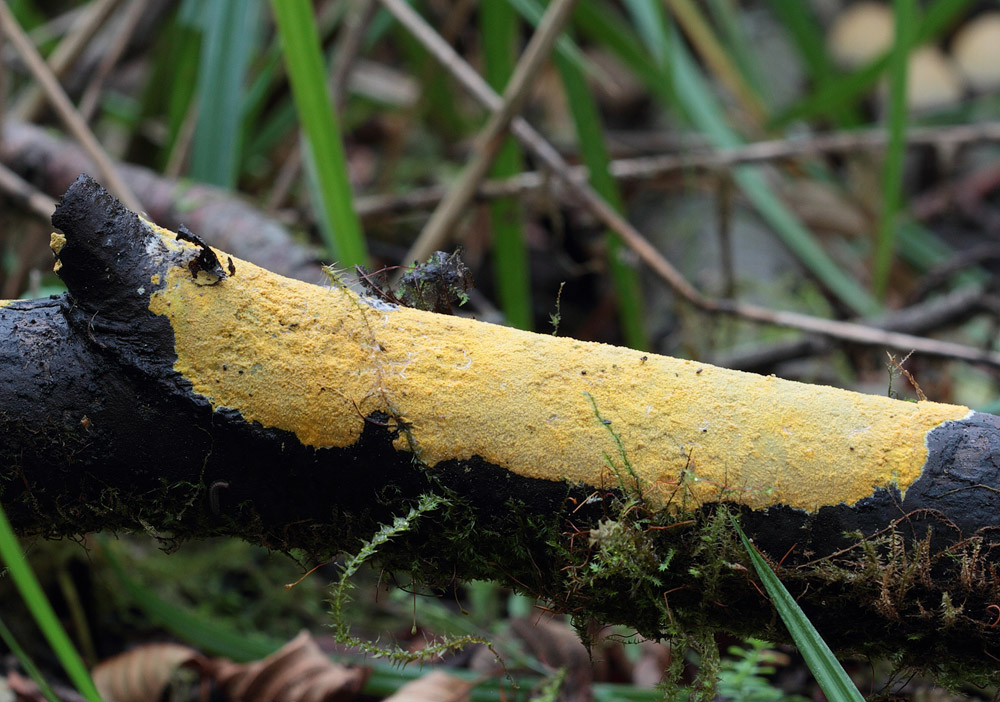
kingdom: Fungi
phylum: Basidiomycota
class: Agaricomycetes
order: Polyporales
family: Meruliaceae
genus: Phlebiodontia
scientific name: Phlebiodontia subochracea
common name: svovl-åresvamp
